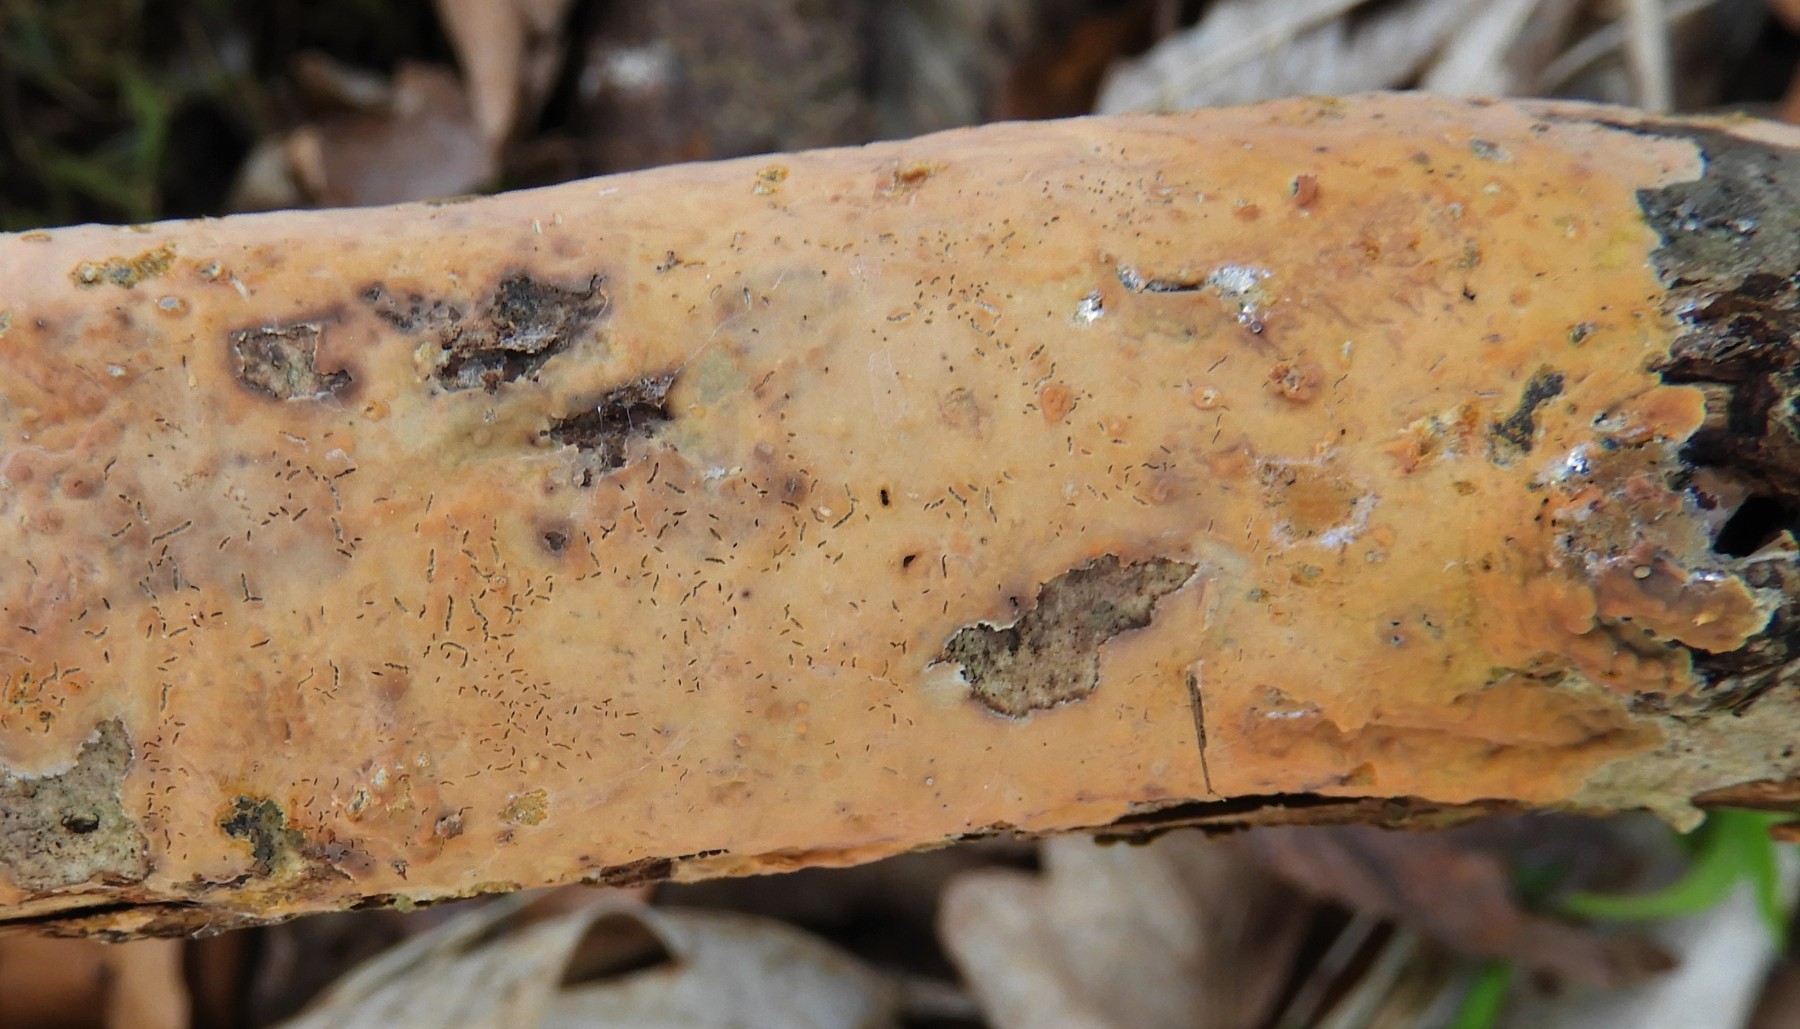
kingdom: Fungi
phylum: Basidiomycota
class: Agaricomycetes
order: Russulales
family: Peniophoraceae
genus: Peniophora
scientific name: Peniophora incarnata
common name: laksefarvet voksskind
